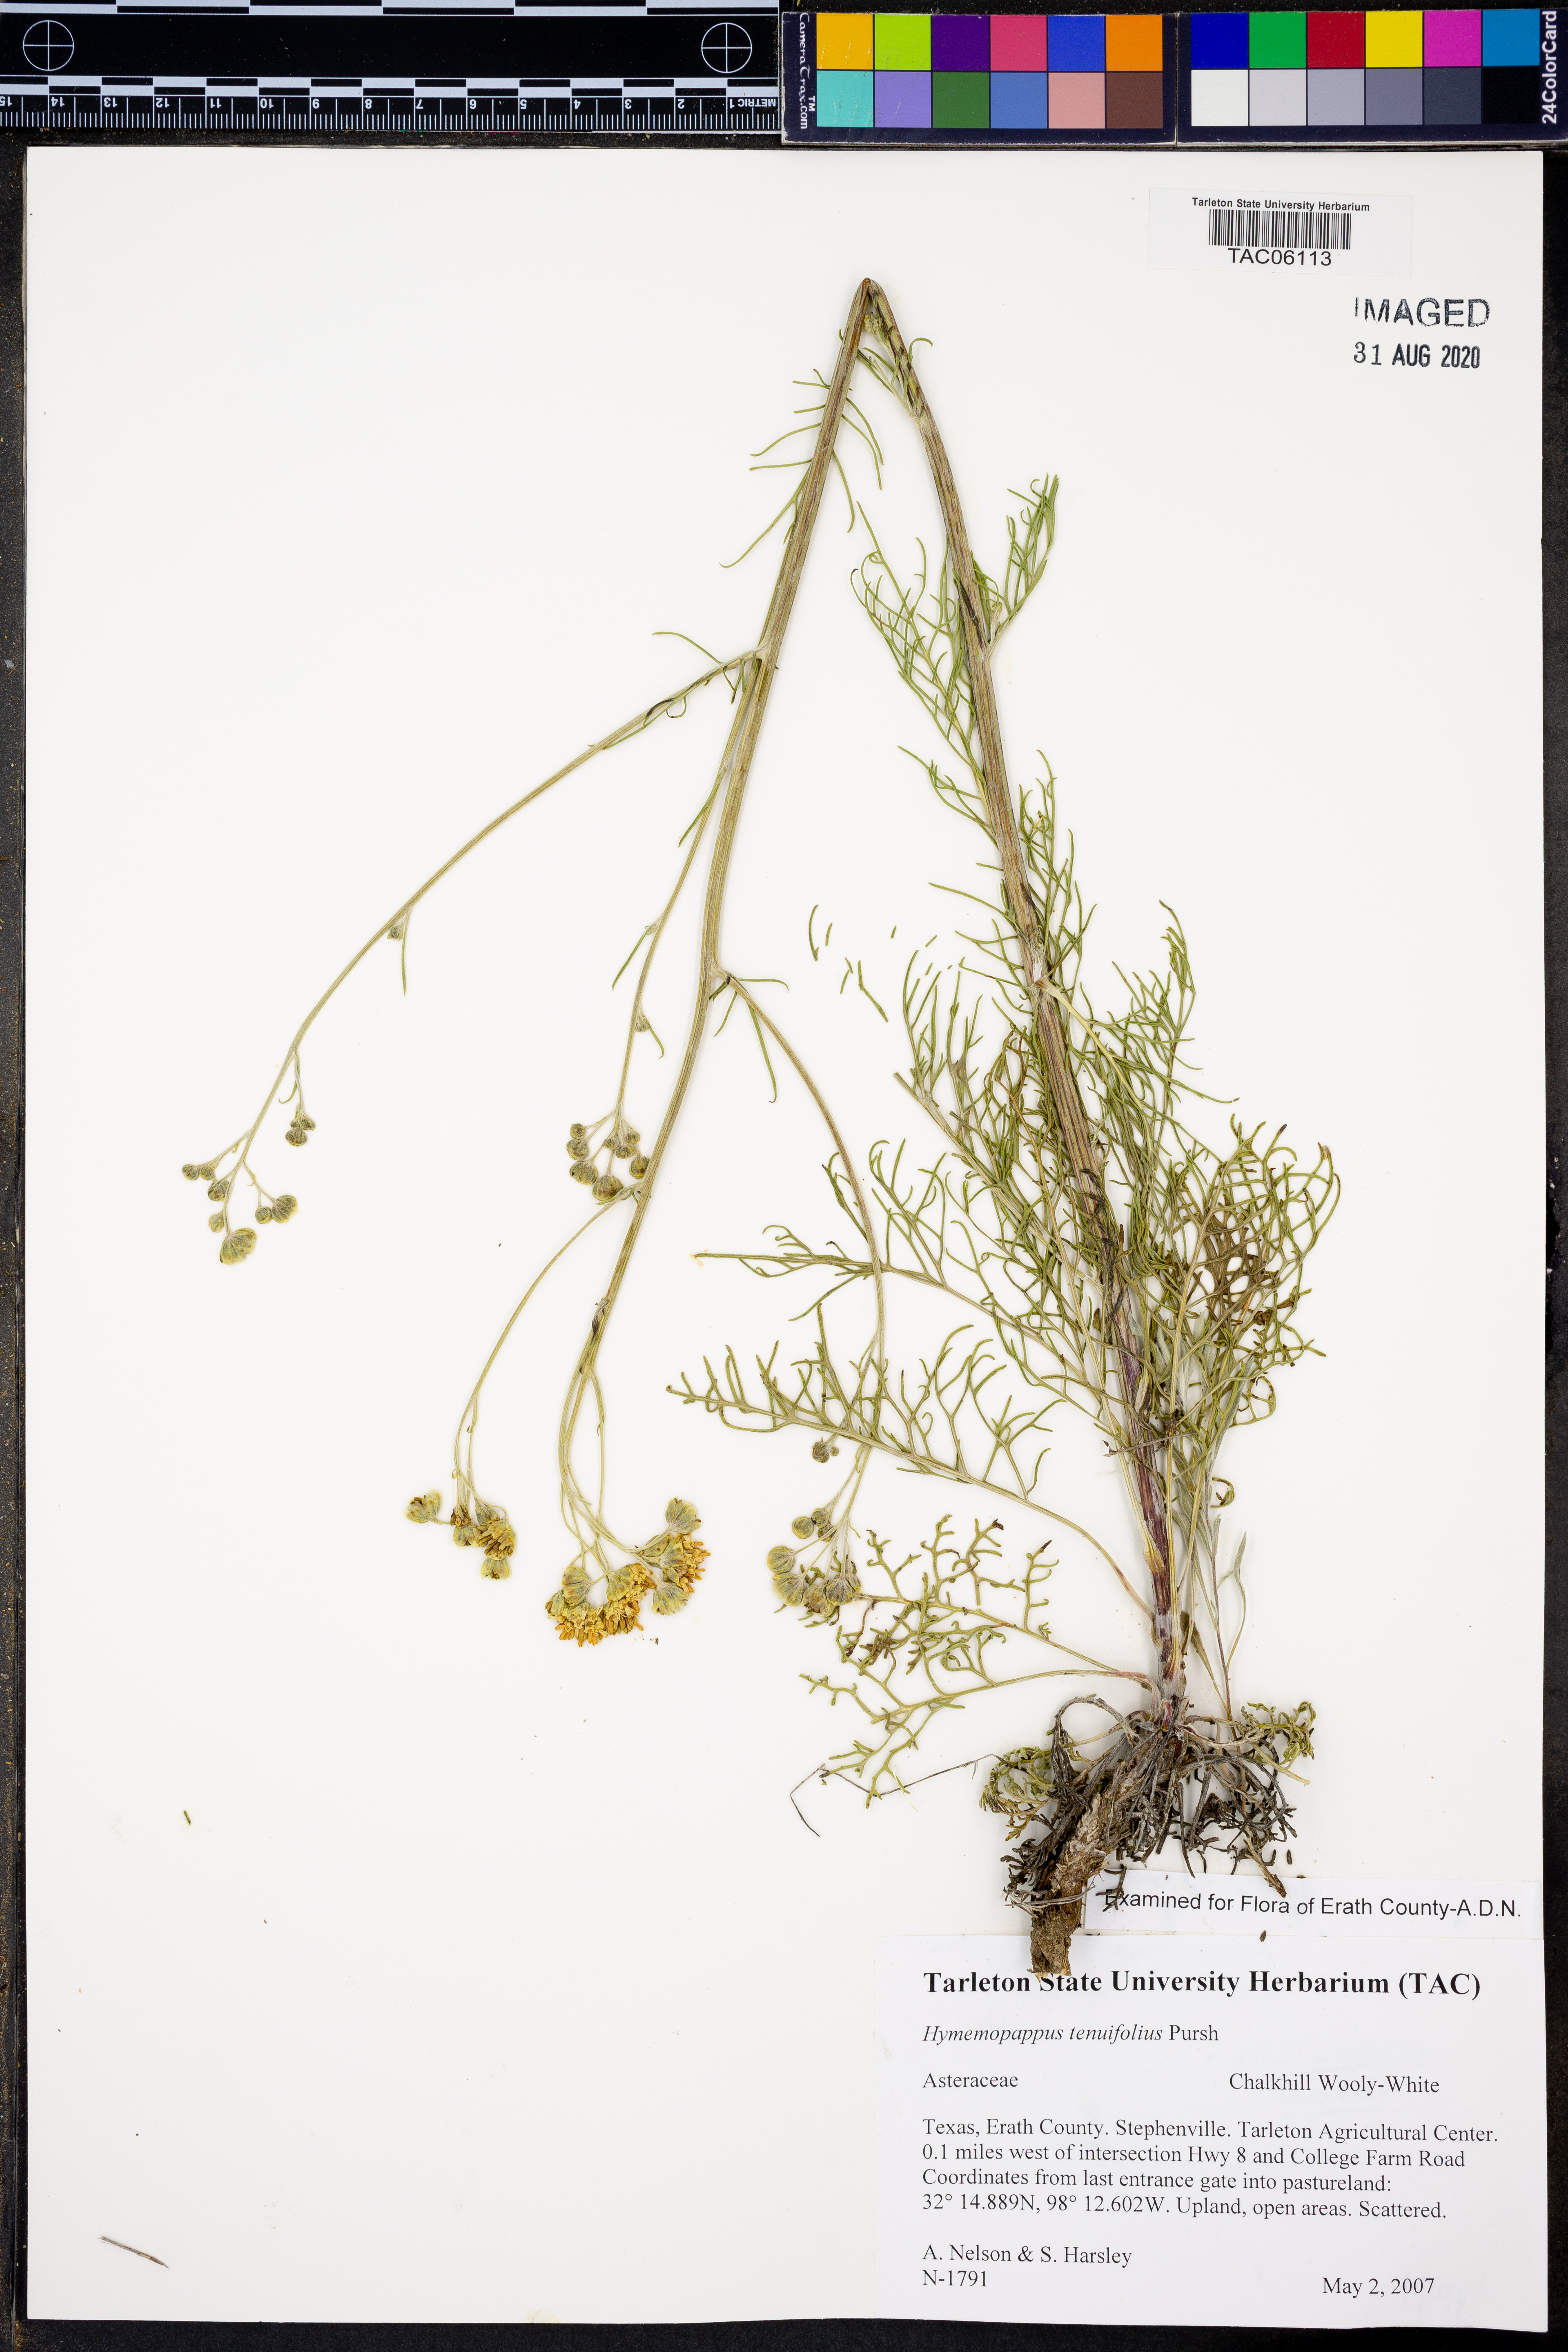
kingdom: Plantae
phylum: Tracheophyta
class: Magnoliopsida
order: Asterales
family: Asteraceae
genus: Hymenopappus
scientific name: Hymenopappus tenuifolius
